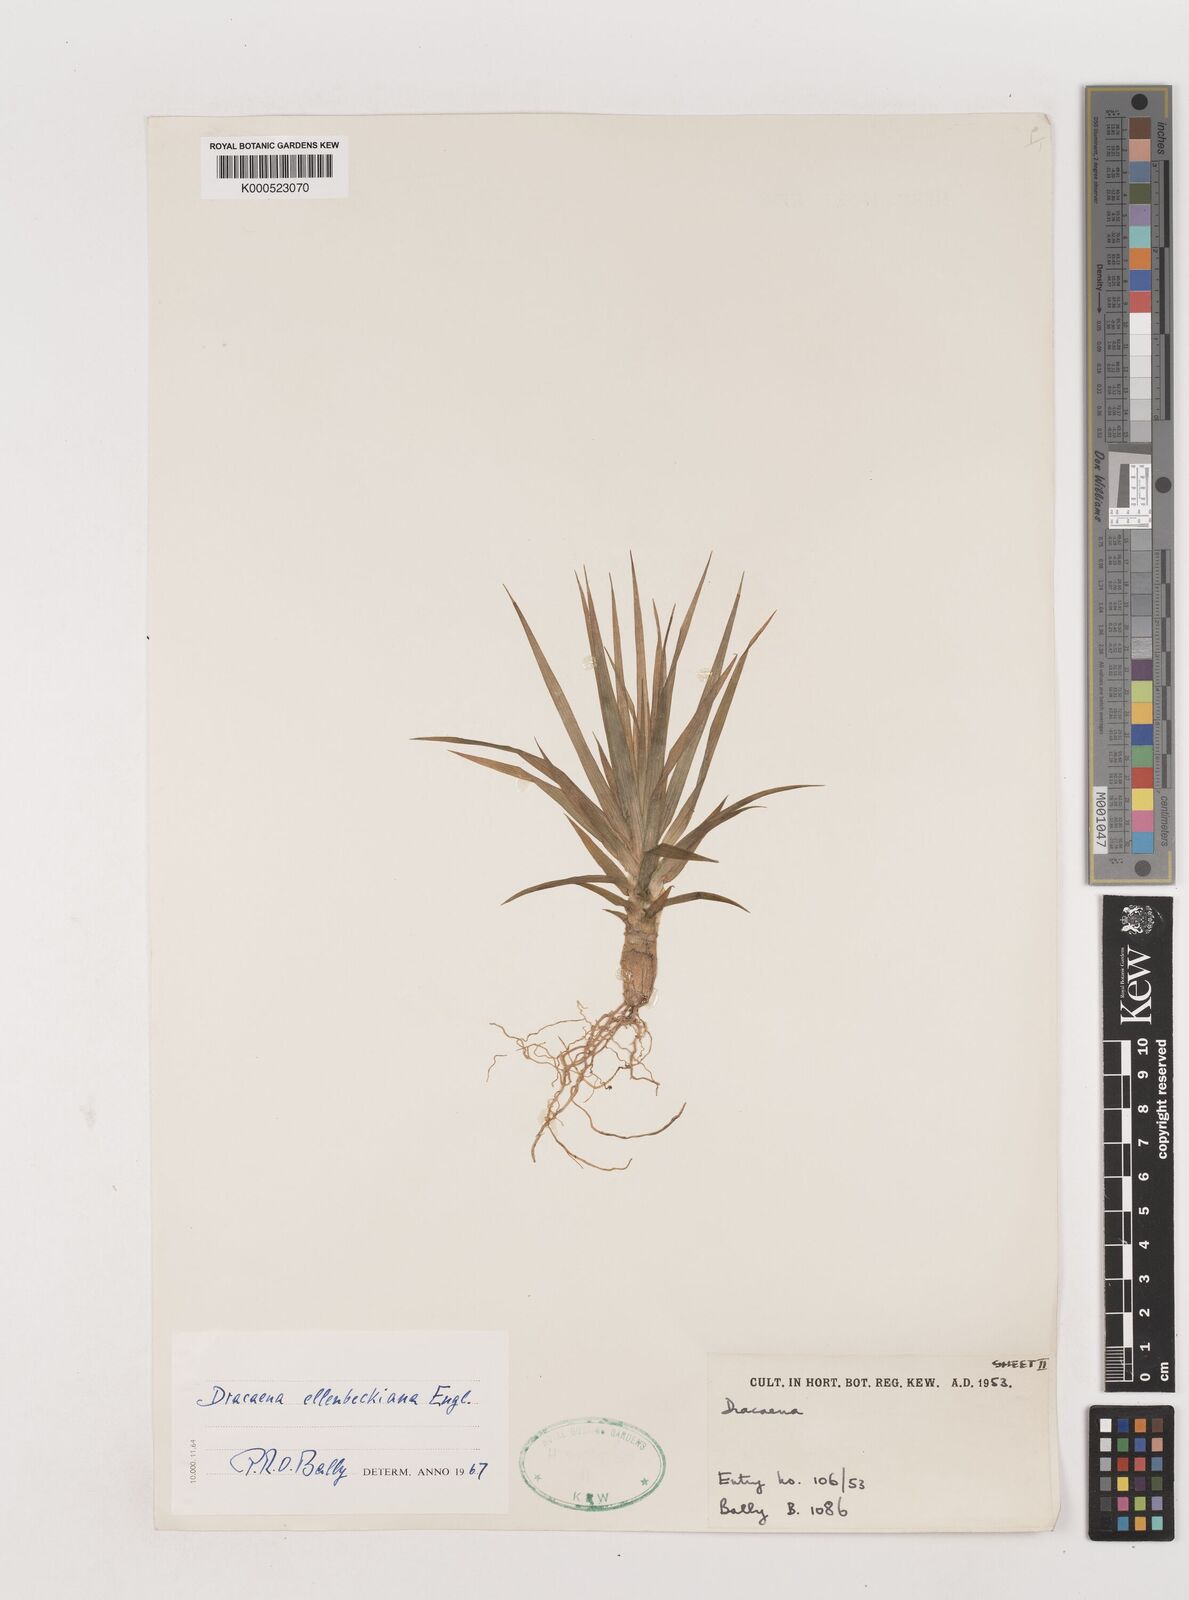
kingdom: Plantae
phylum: Tracheophyta
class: Liliopsida
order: Asparagales
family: Asparagaceae
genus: Dracaena
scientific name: Dracaena ellenbeckiana
